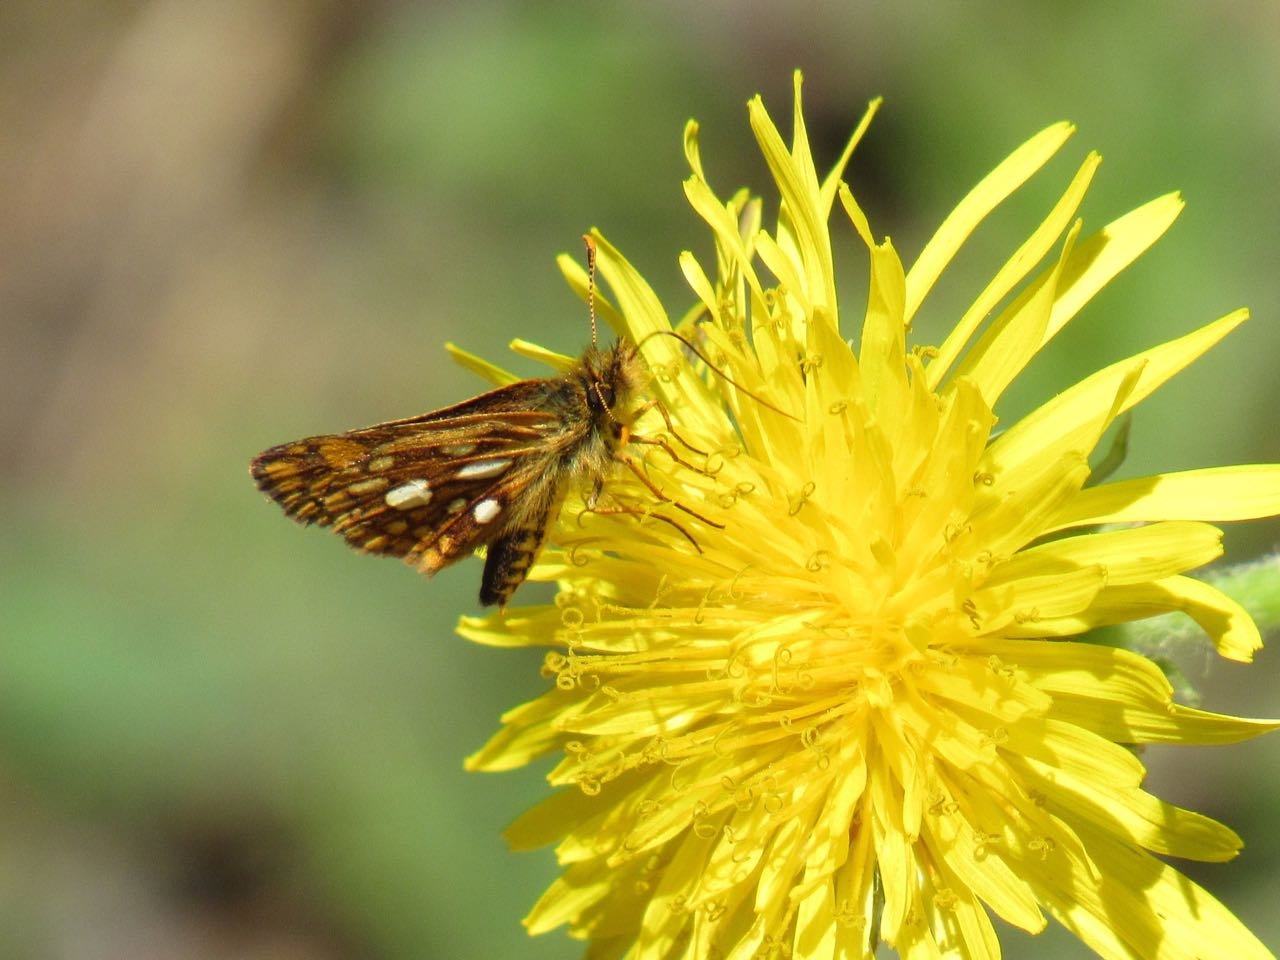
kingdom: Animalia
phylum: Arthropoda
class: Insecta
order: Lepidoptera
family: Hesperiidae
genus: Carterocephalus
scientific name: Carterocephalus palaemon
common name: Chequered Skipper
